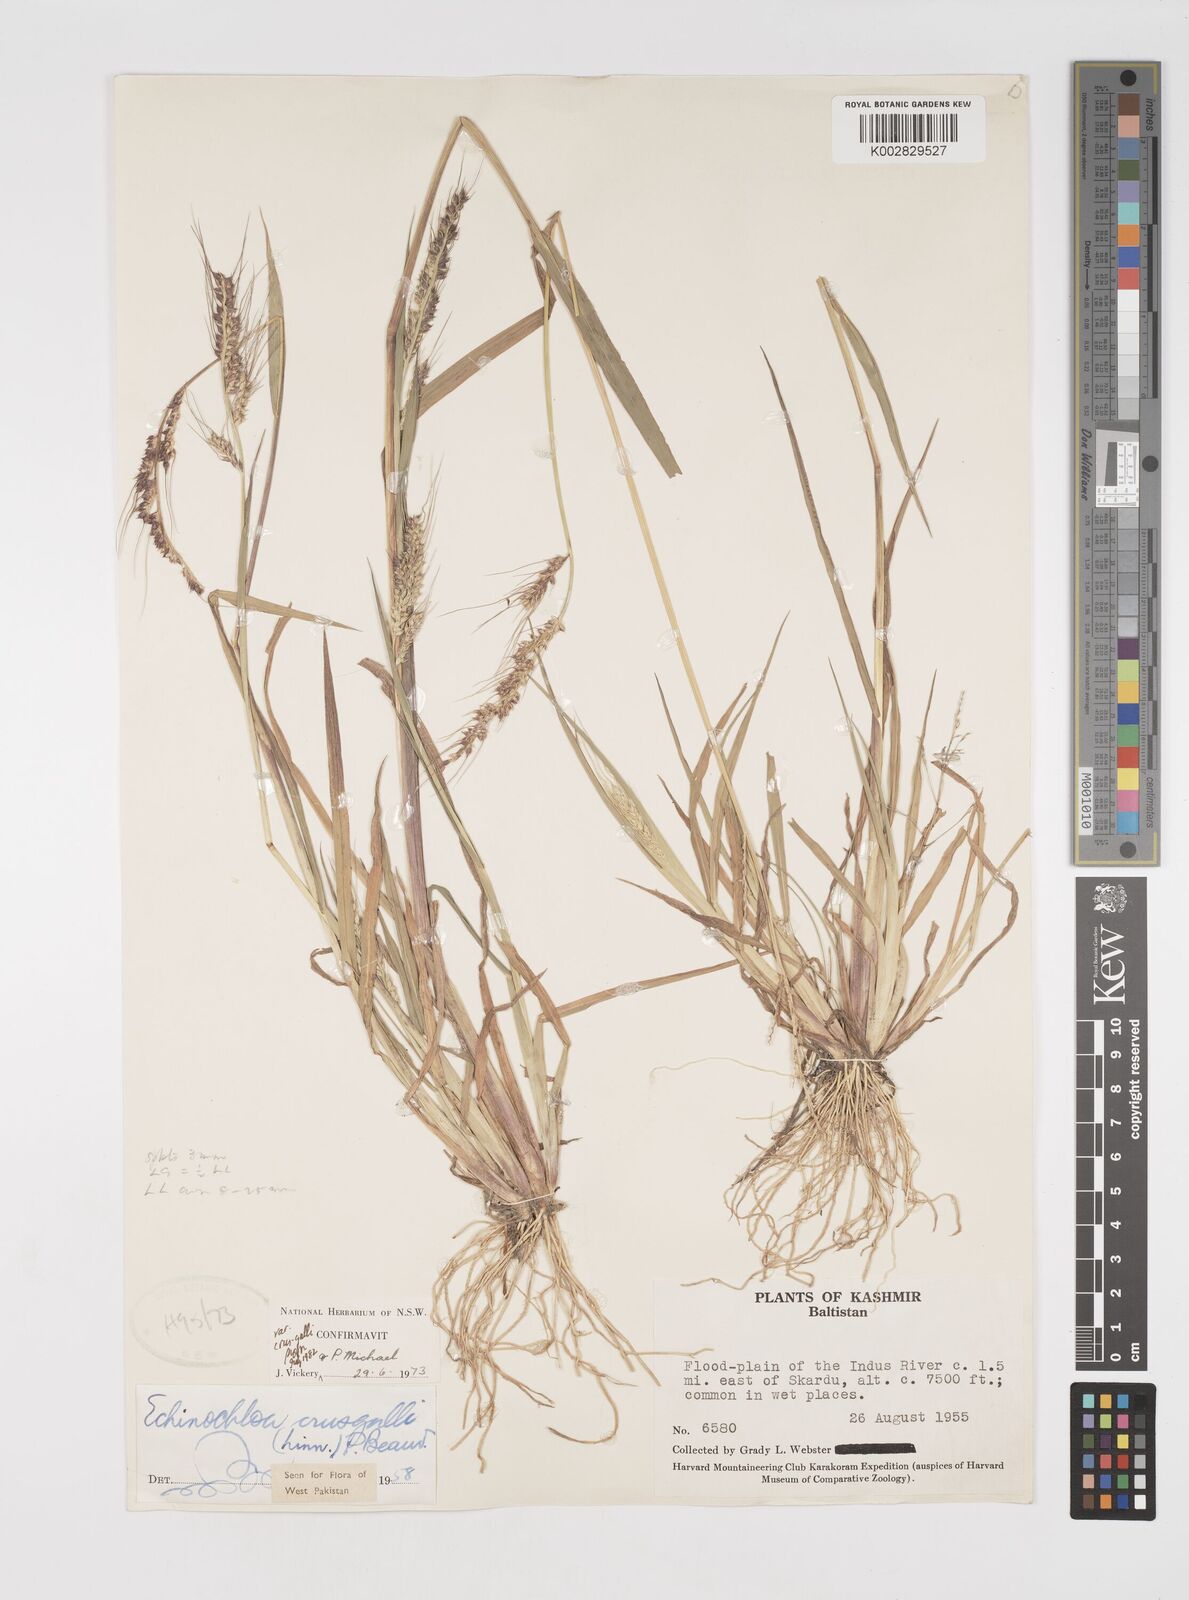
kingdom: Plantae
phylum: Tracheophyta
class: Liliopsida
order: Poales
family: Poaceae
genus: Echinochloa
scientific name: Echinochloa crus-galli
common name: Cockspur
